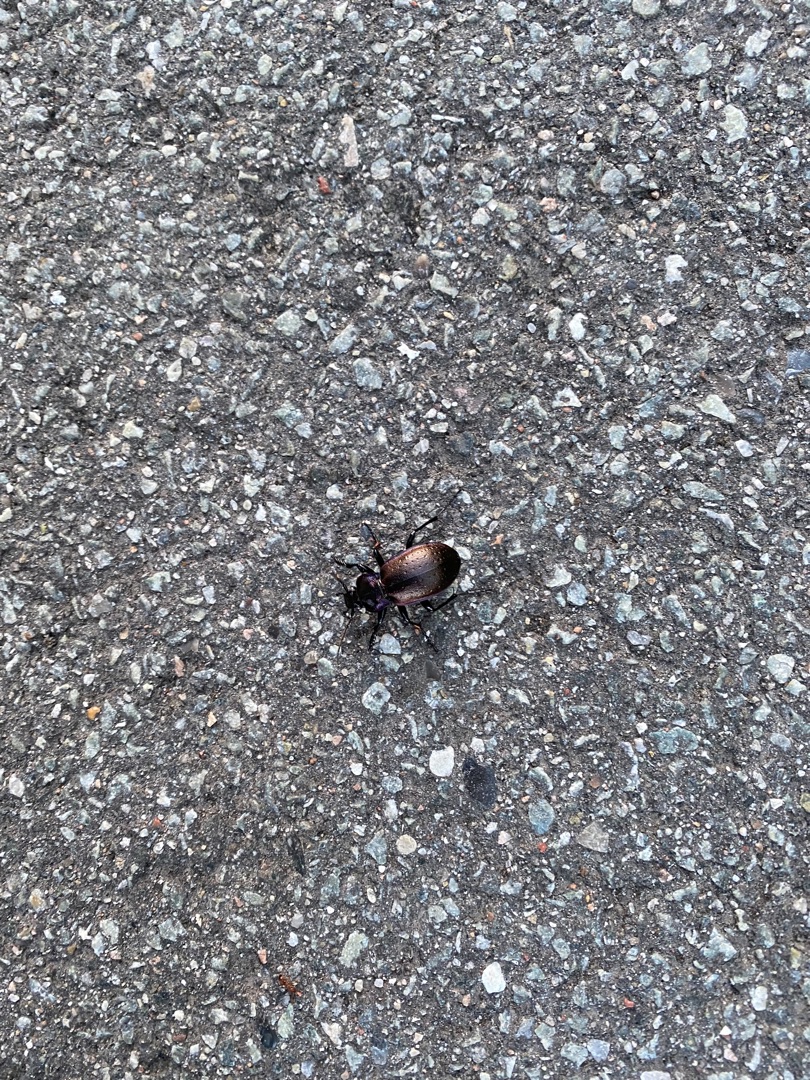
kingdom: Animalia
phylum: Arthropoda
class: Insecta
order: Coleoptera
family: Carabidae
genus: Carabus
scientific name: Carabus nemoralis
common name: Kratløber
